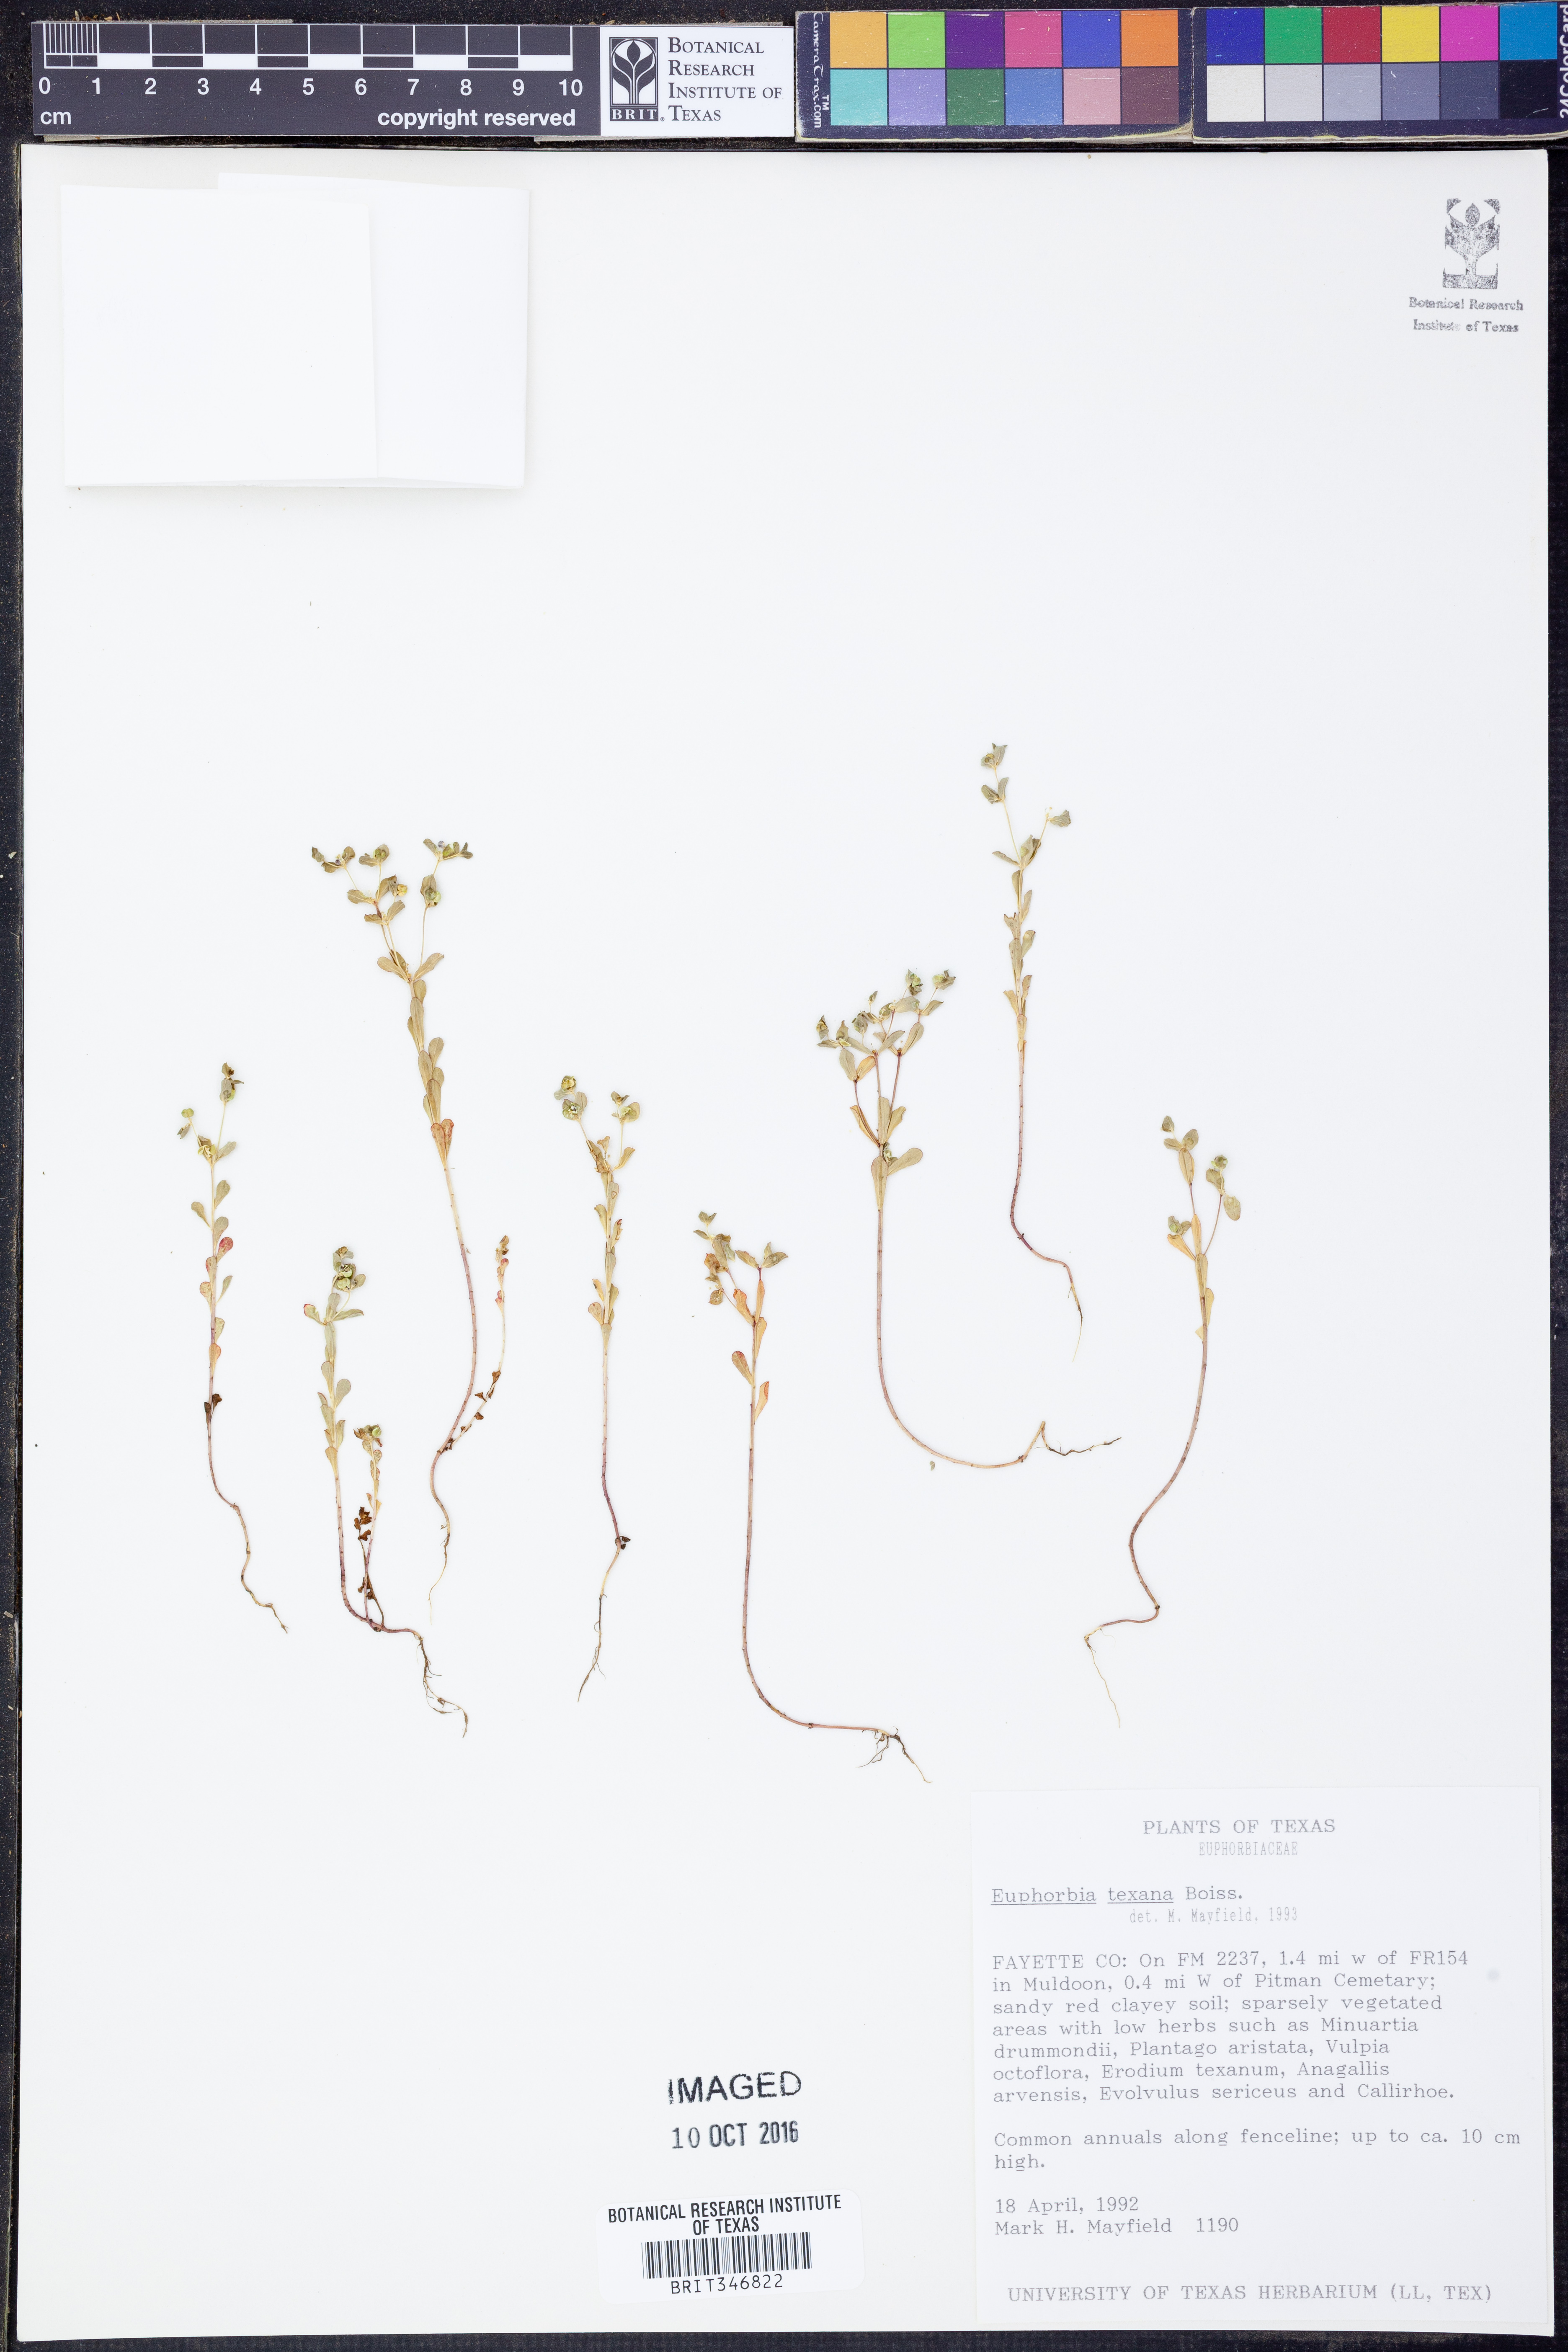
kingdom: Plantae
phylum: Tracheophyta
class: Magnoliopsida
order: Malpighiales
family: Euphorbiaceae
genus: Euphorbia
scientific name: Euphorbia texana
